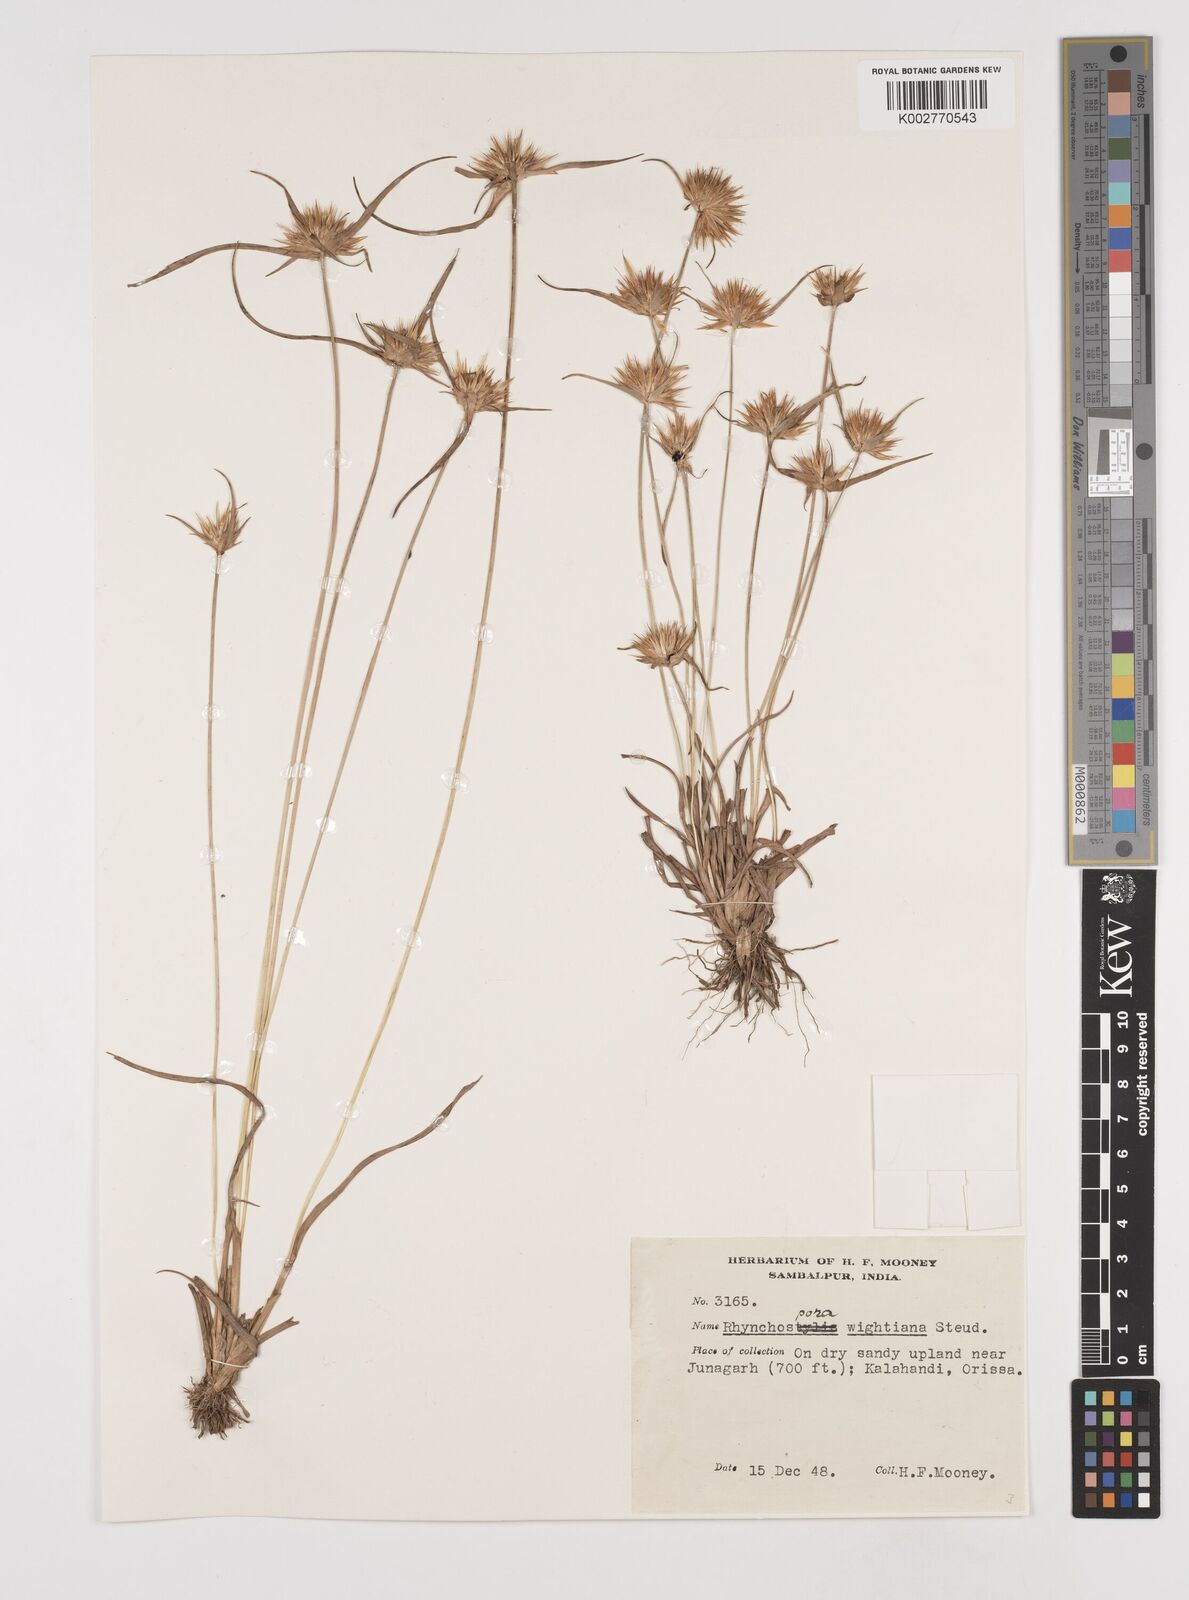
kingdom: Plantae
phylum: Tracheophyta
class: Liliopsida
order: Poales
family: Cyperaceae
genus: Rhynchospora
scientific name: Rhynchospora wightiana
